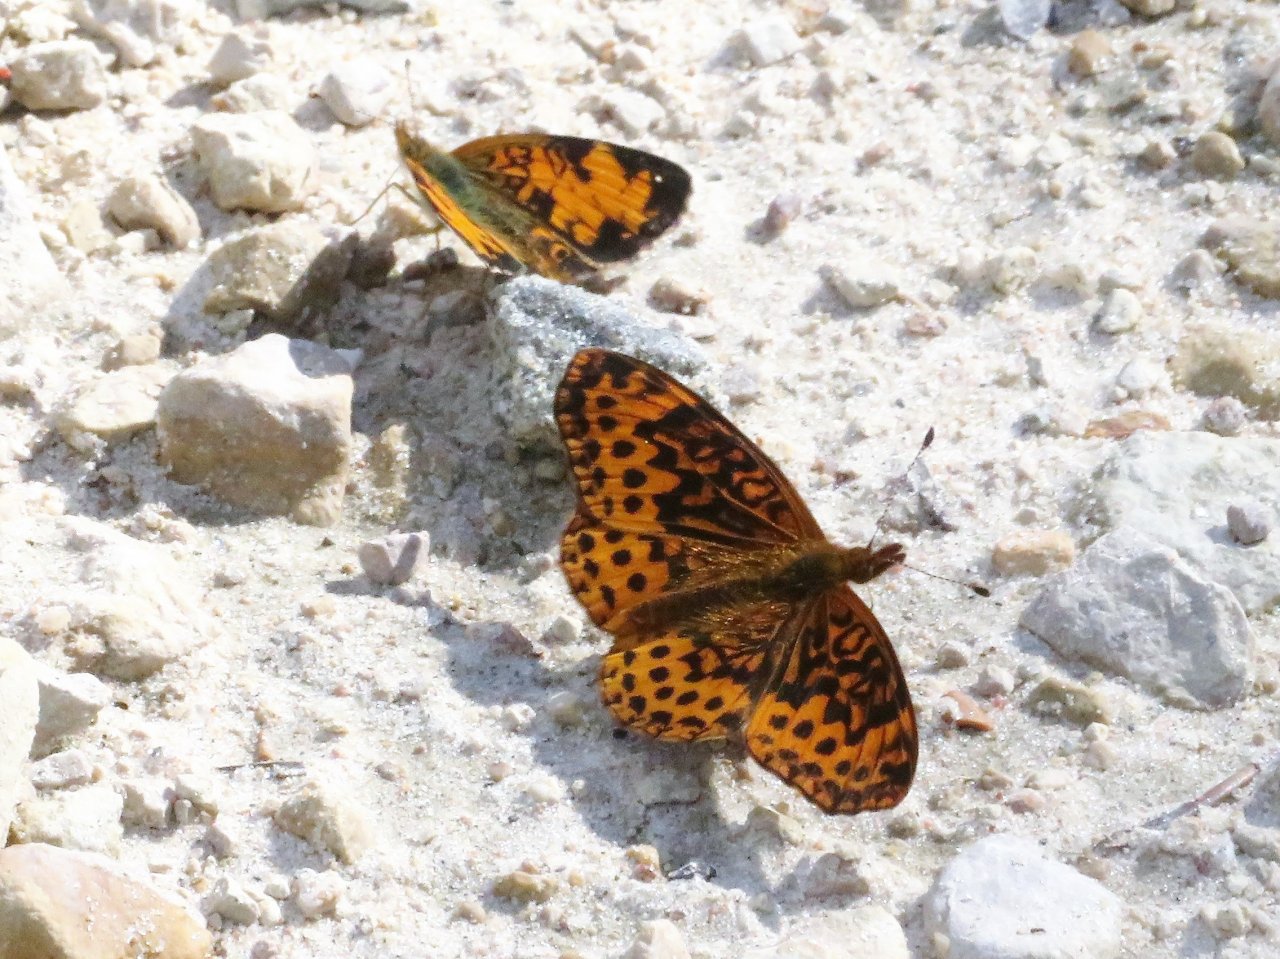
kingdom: Animalia
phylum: Arthropoda
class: Insecta
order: Lepidoptera
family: Nymphalidae
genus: Clossiana
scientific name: Clossiana toddi
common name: Meadow Fritillary
